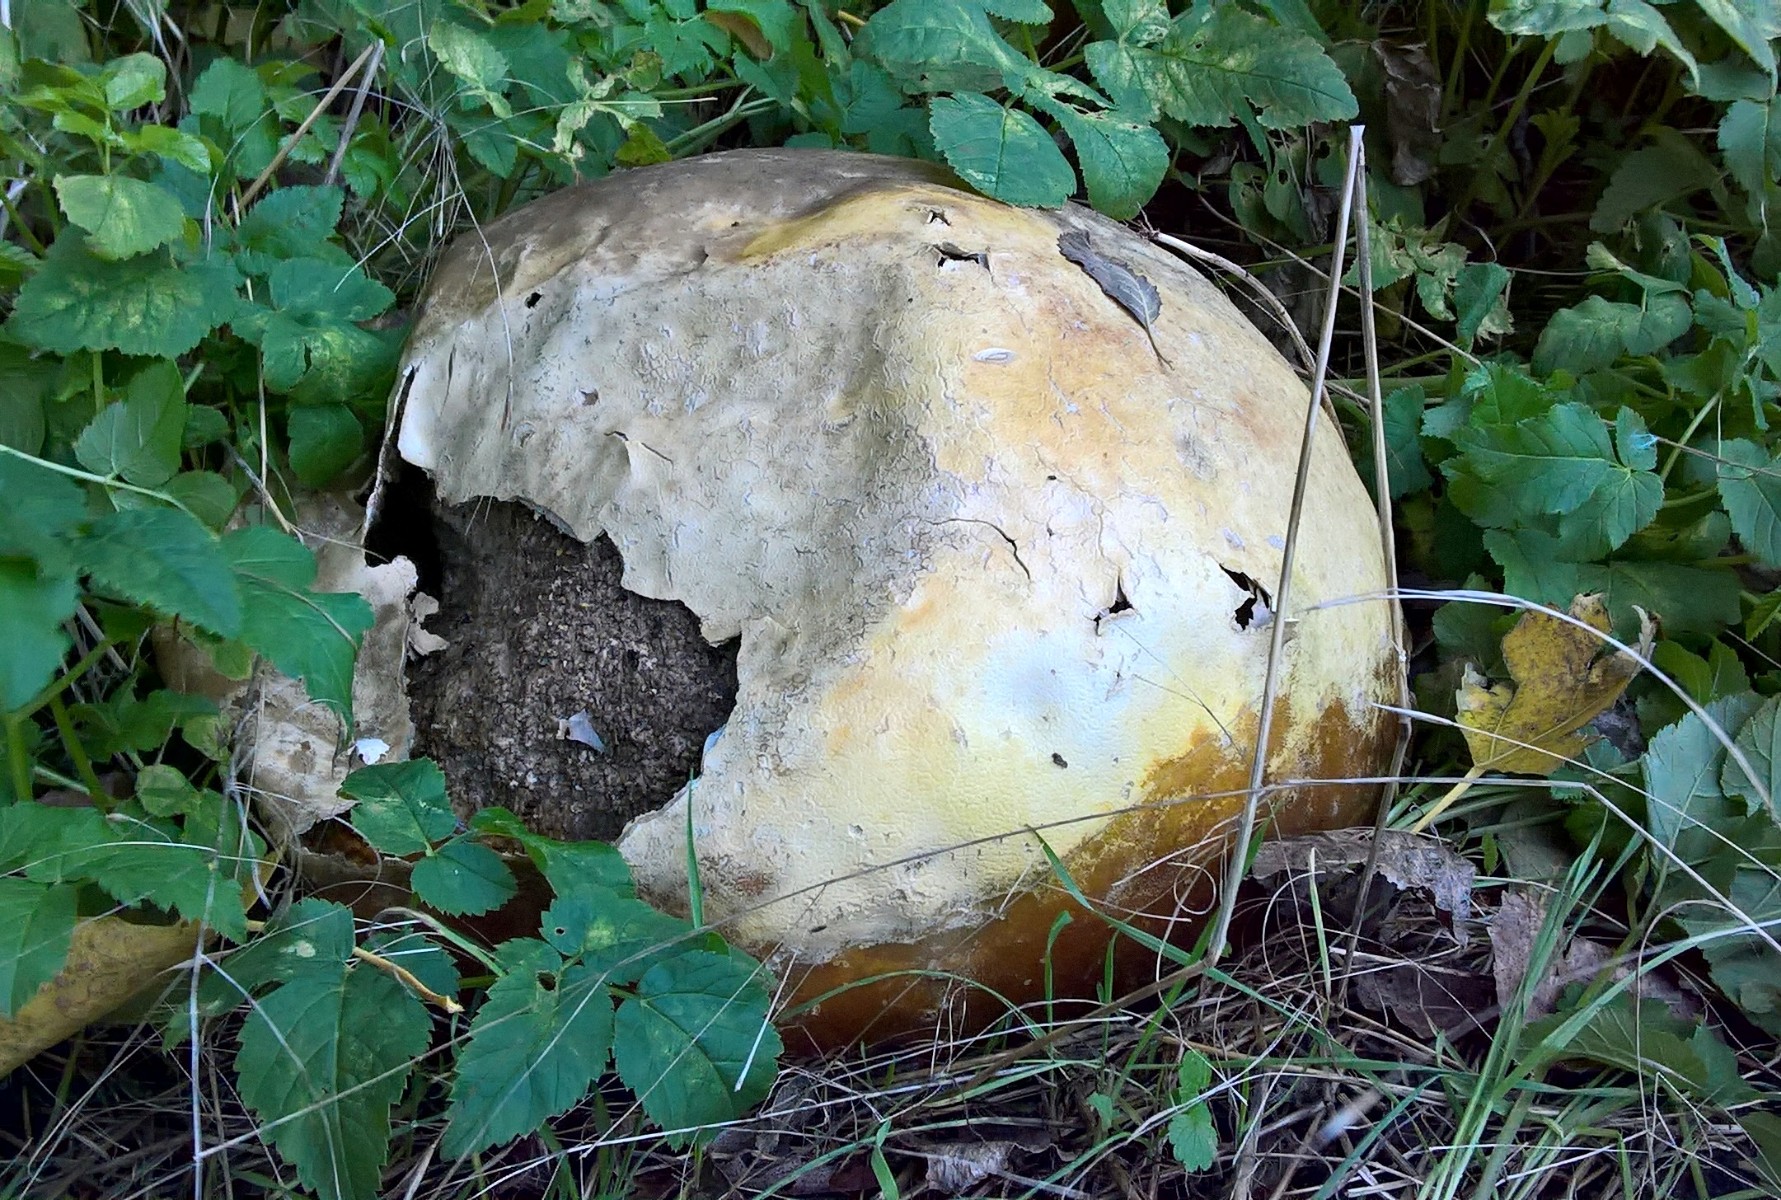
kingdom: Fungi
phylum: Basidiomycota
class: Agaricomycetes
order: Agaricales
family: Lycoperdaceae
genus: Calvatia
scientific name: Calvatia gigantea
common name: kæmpestøvbold
